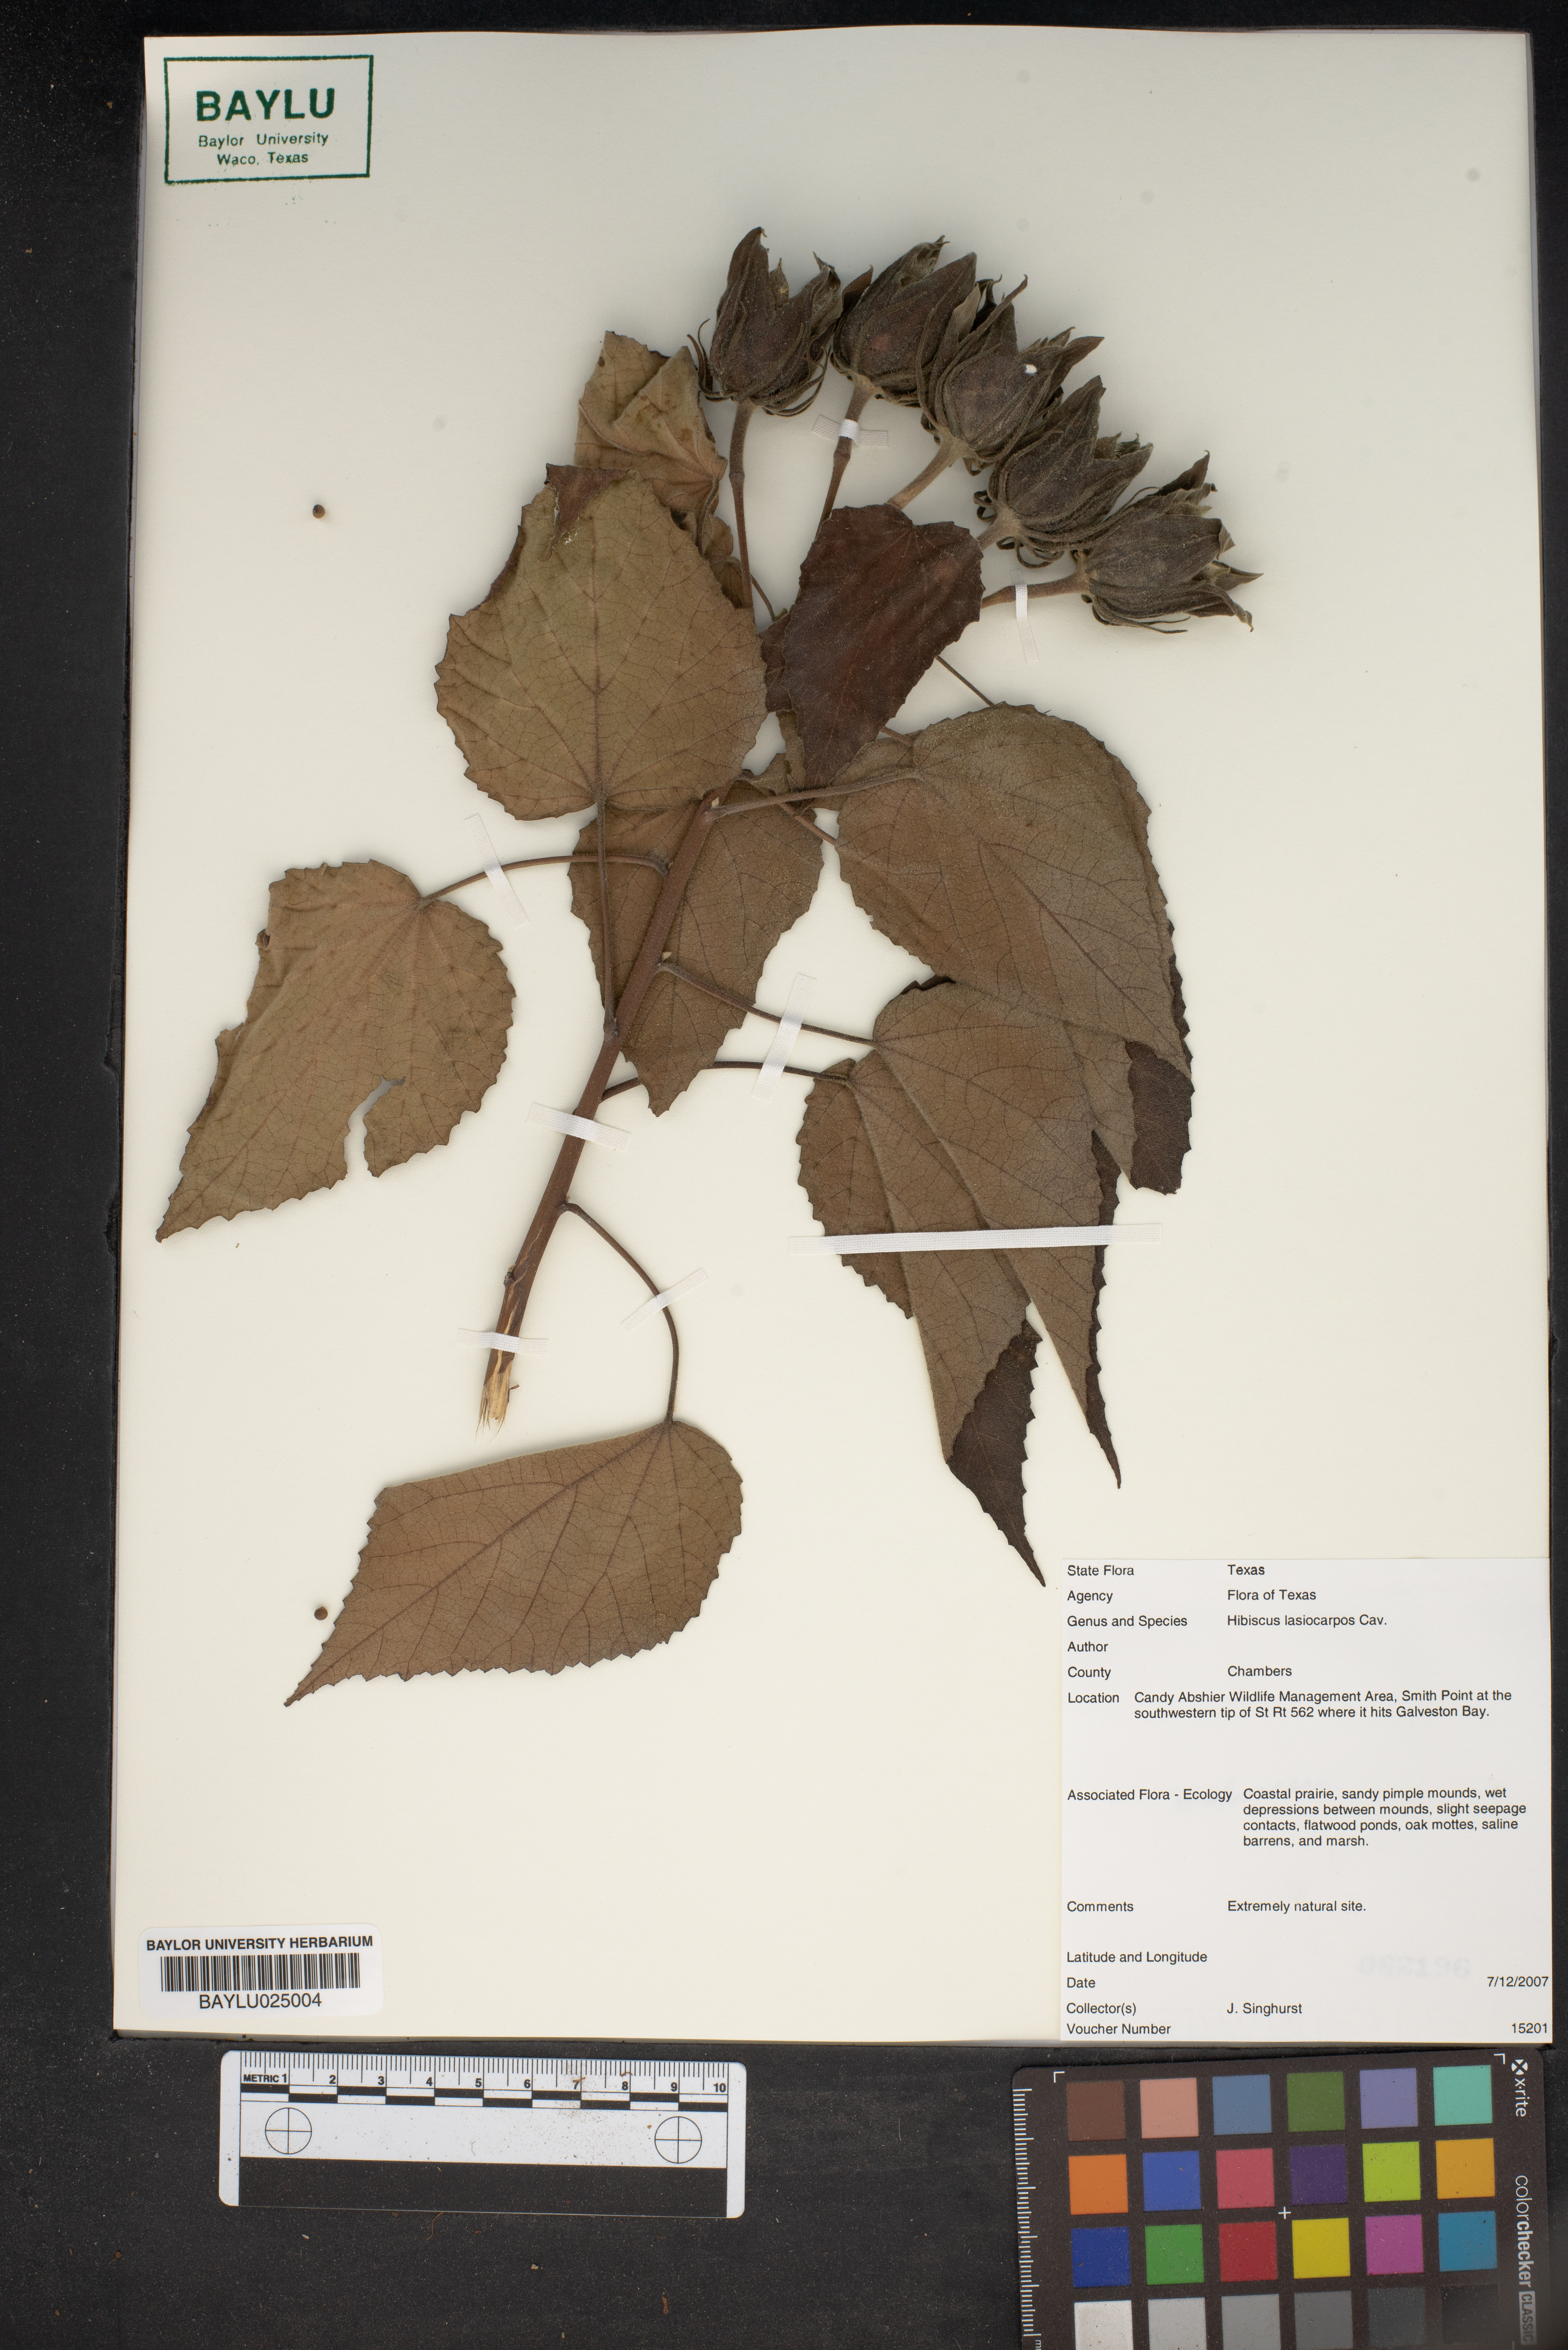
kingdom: Plantae
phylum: Tracheophyta
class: Magnoliopsida
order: Malvales
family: Malvaceae
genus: Hibiscus
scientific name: Hibiscus moscheutos
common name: Common rose-mallow
